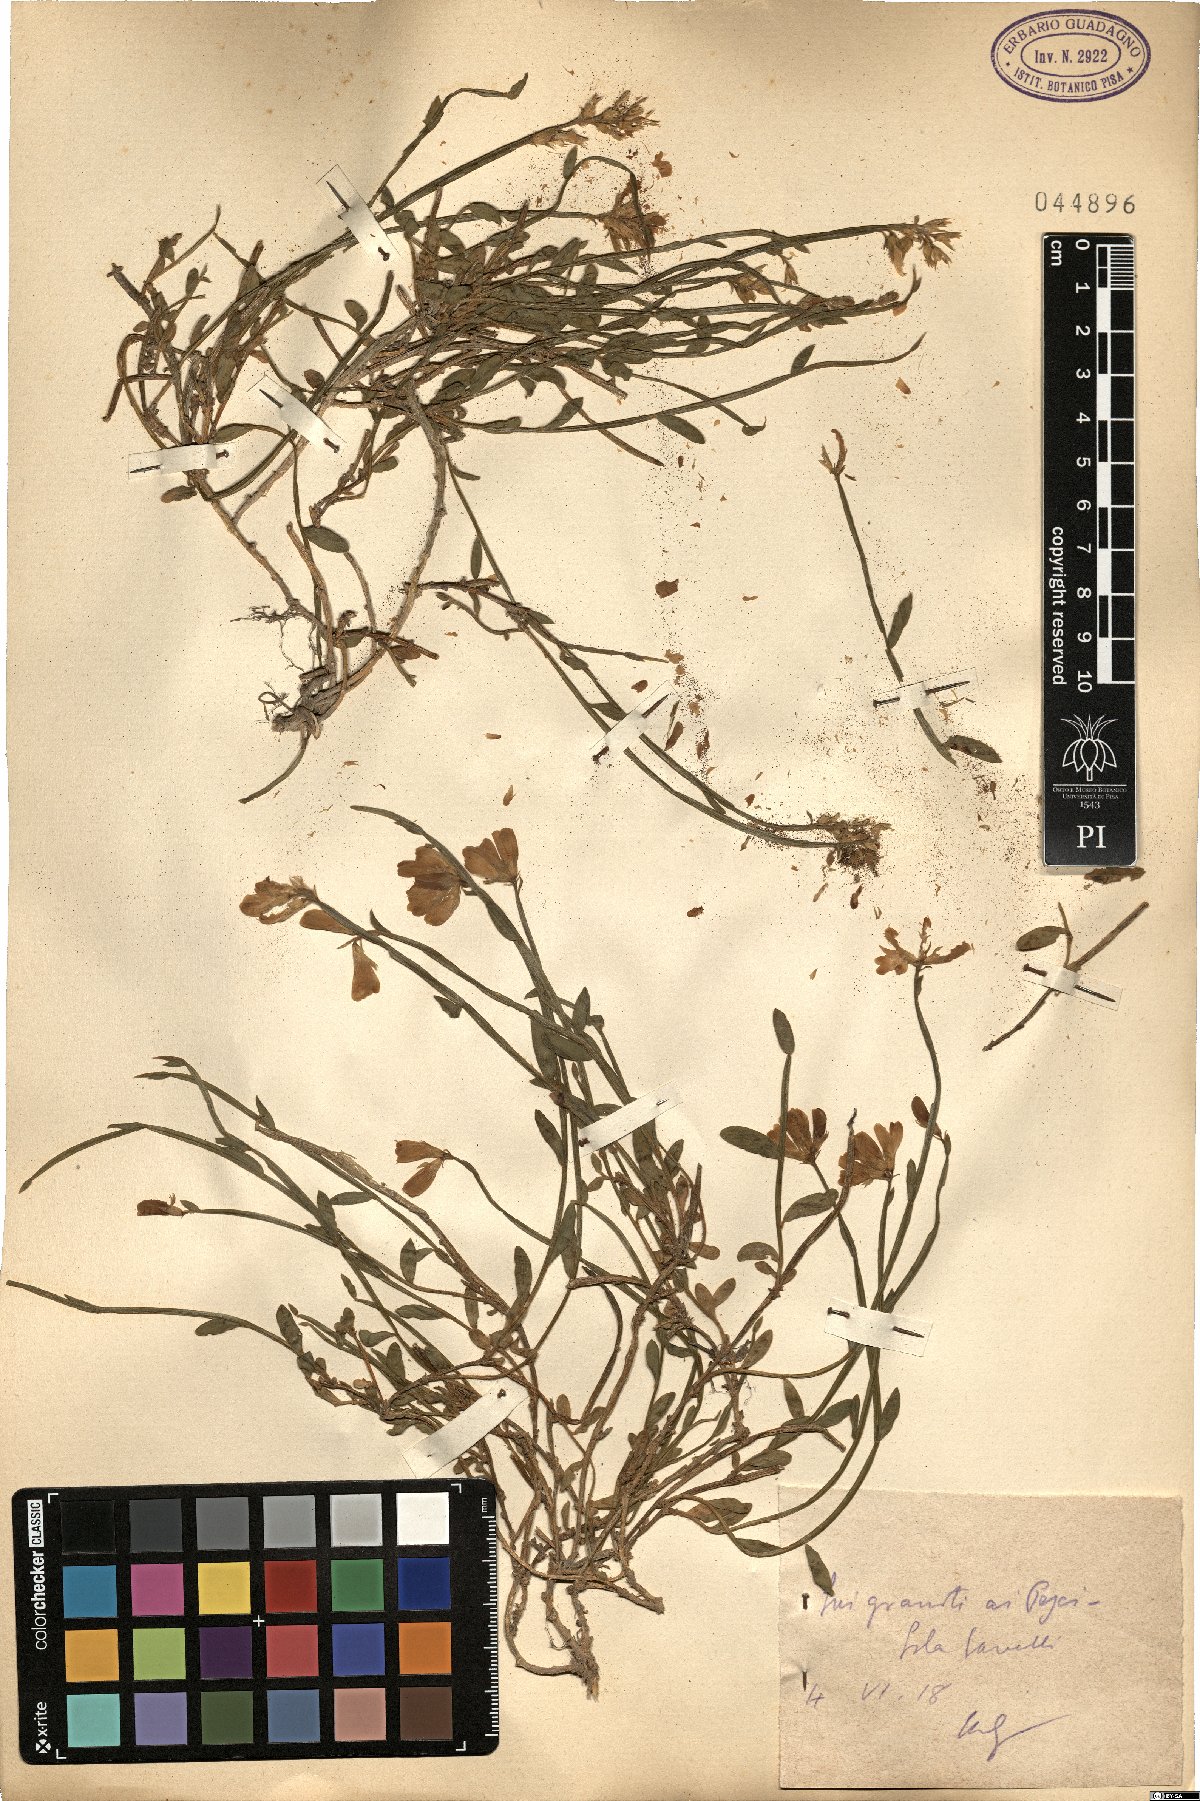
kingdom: Plantae
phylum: Tracheophyta
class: Magnoliopsida
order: Fabales
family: Fabaceae
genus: Genista
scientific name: Genista
